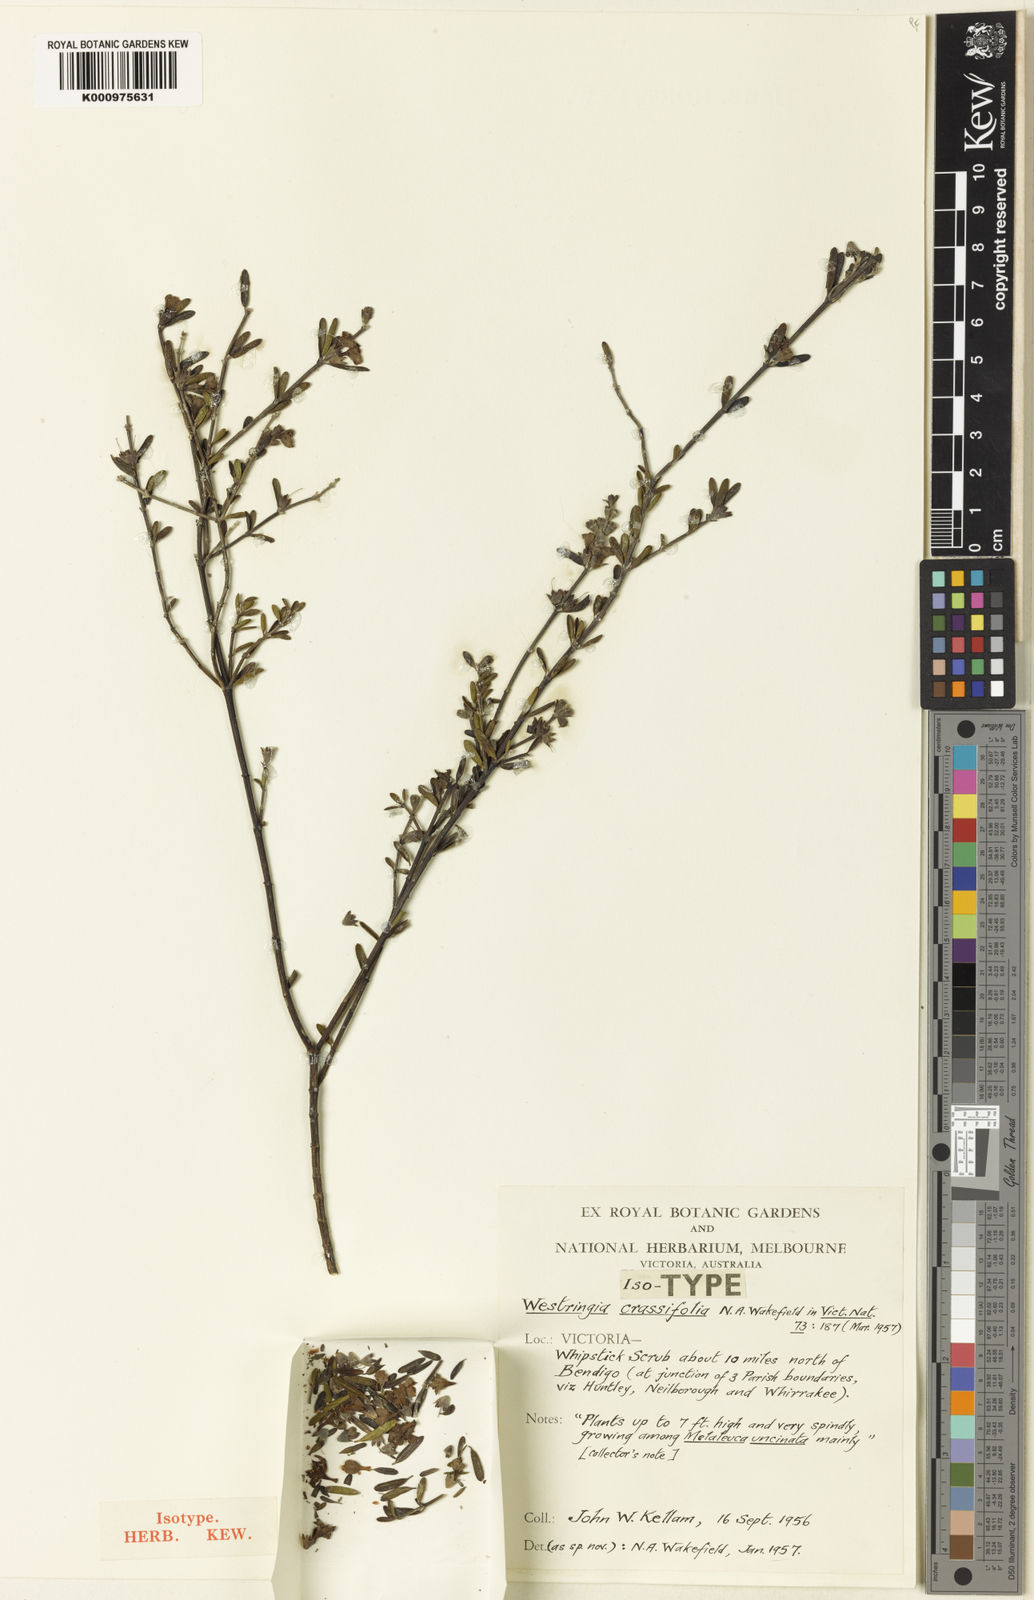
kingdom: Plantae
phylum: Tracheophyta
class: Magnoliopsida
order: Lamiales
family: Lamiaceae
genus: Westringia
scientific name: Westringia crassifolia
